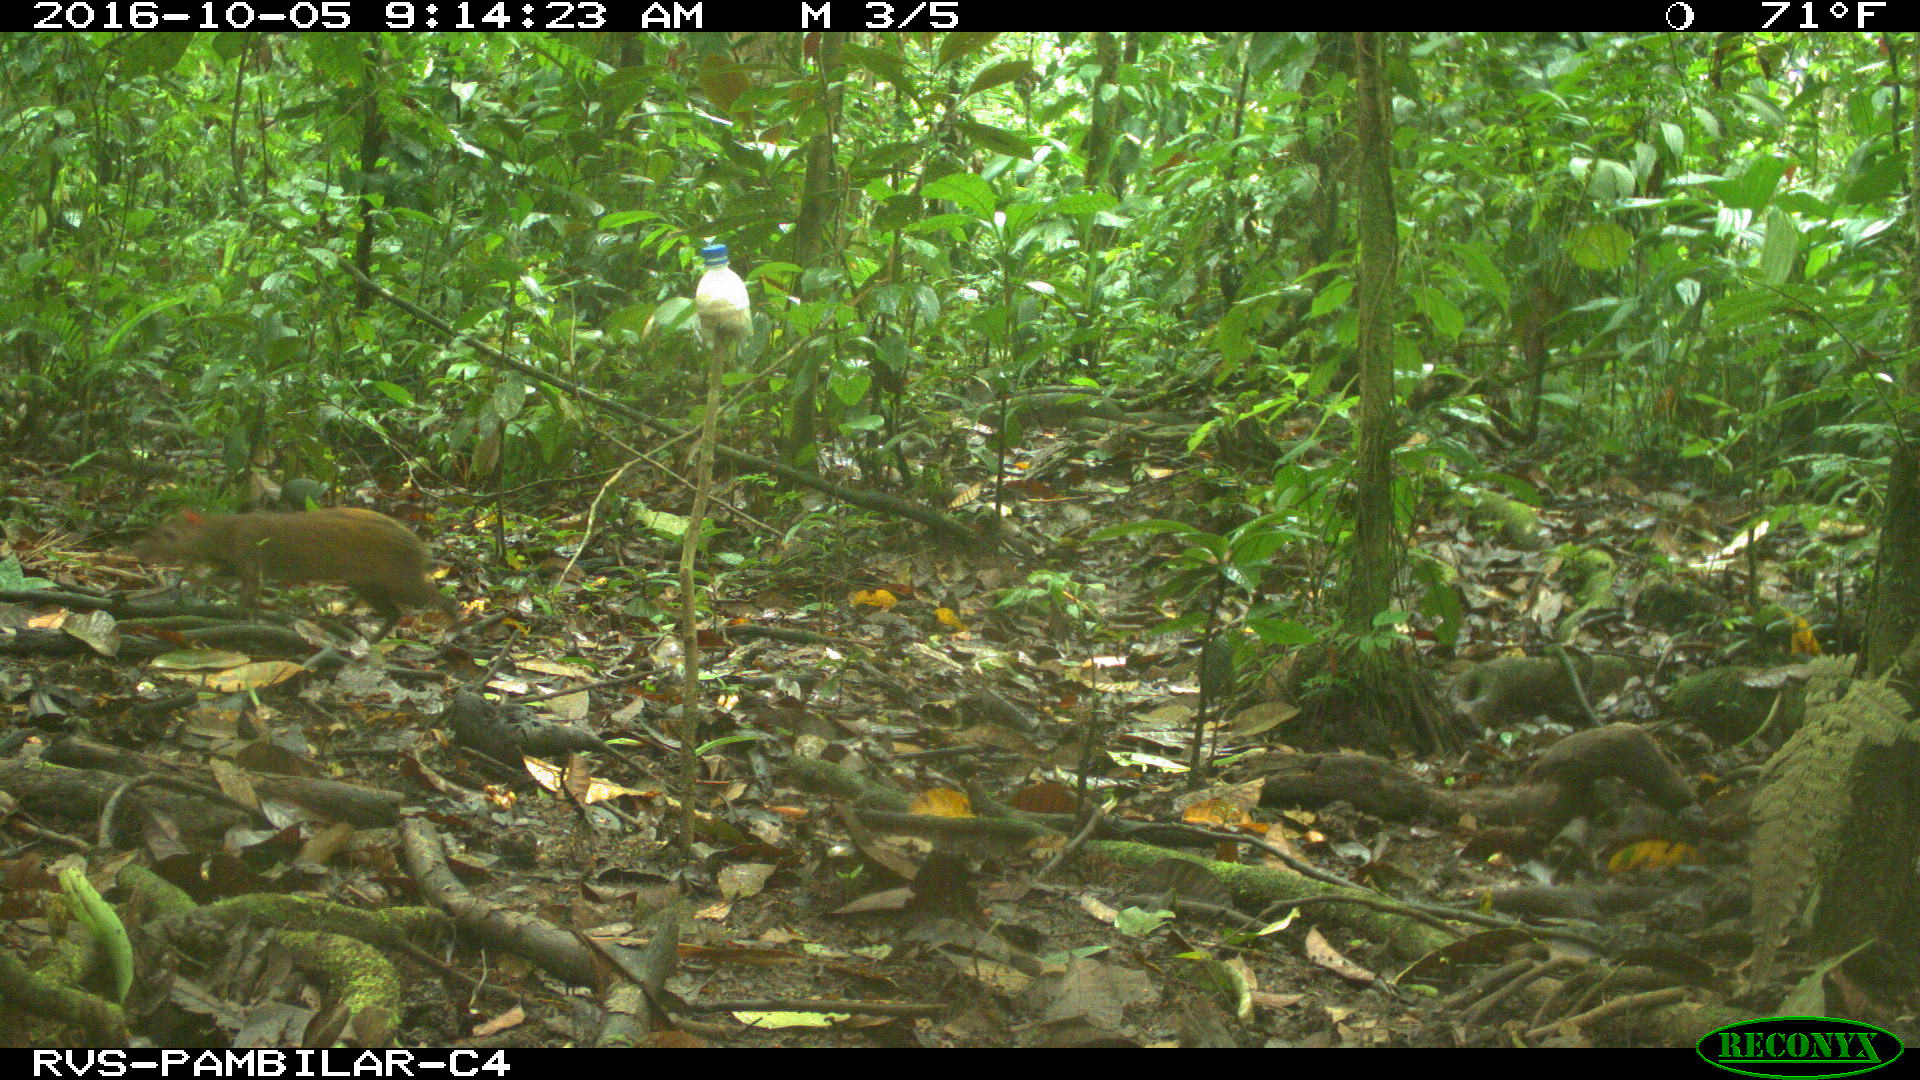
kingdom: Animalia
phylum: Chordata
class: Mammalia
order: Rodentia
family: Dasyproctidae
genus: Dasyprocta
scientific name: Dasyprocta punctata
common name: Central american agouti
